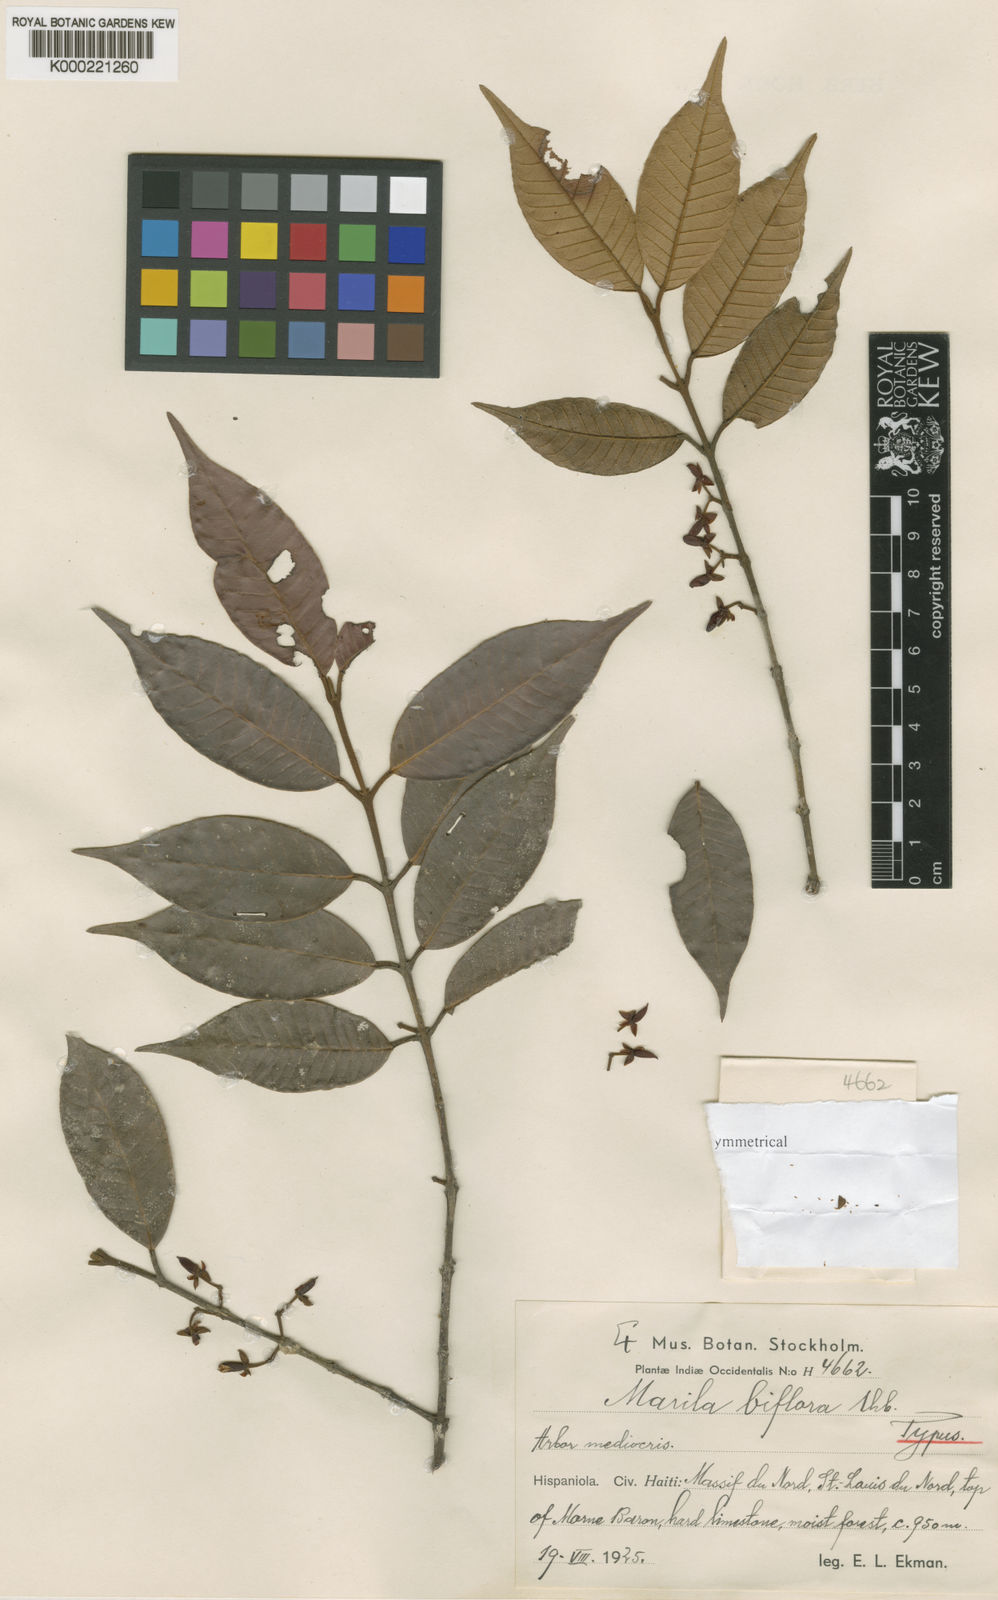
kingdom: Plantae
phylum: Tracheophyta
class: Magnoliopsida
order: Malpighiales
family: Calophyllaceae
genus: Marila
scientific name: Marila biflora
